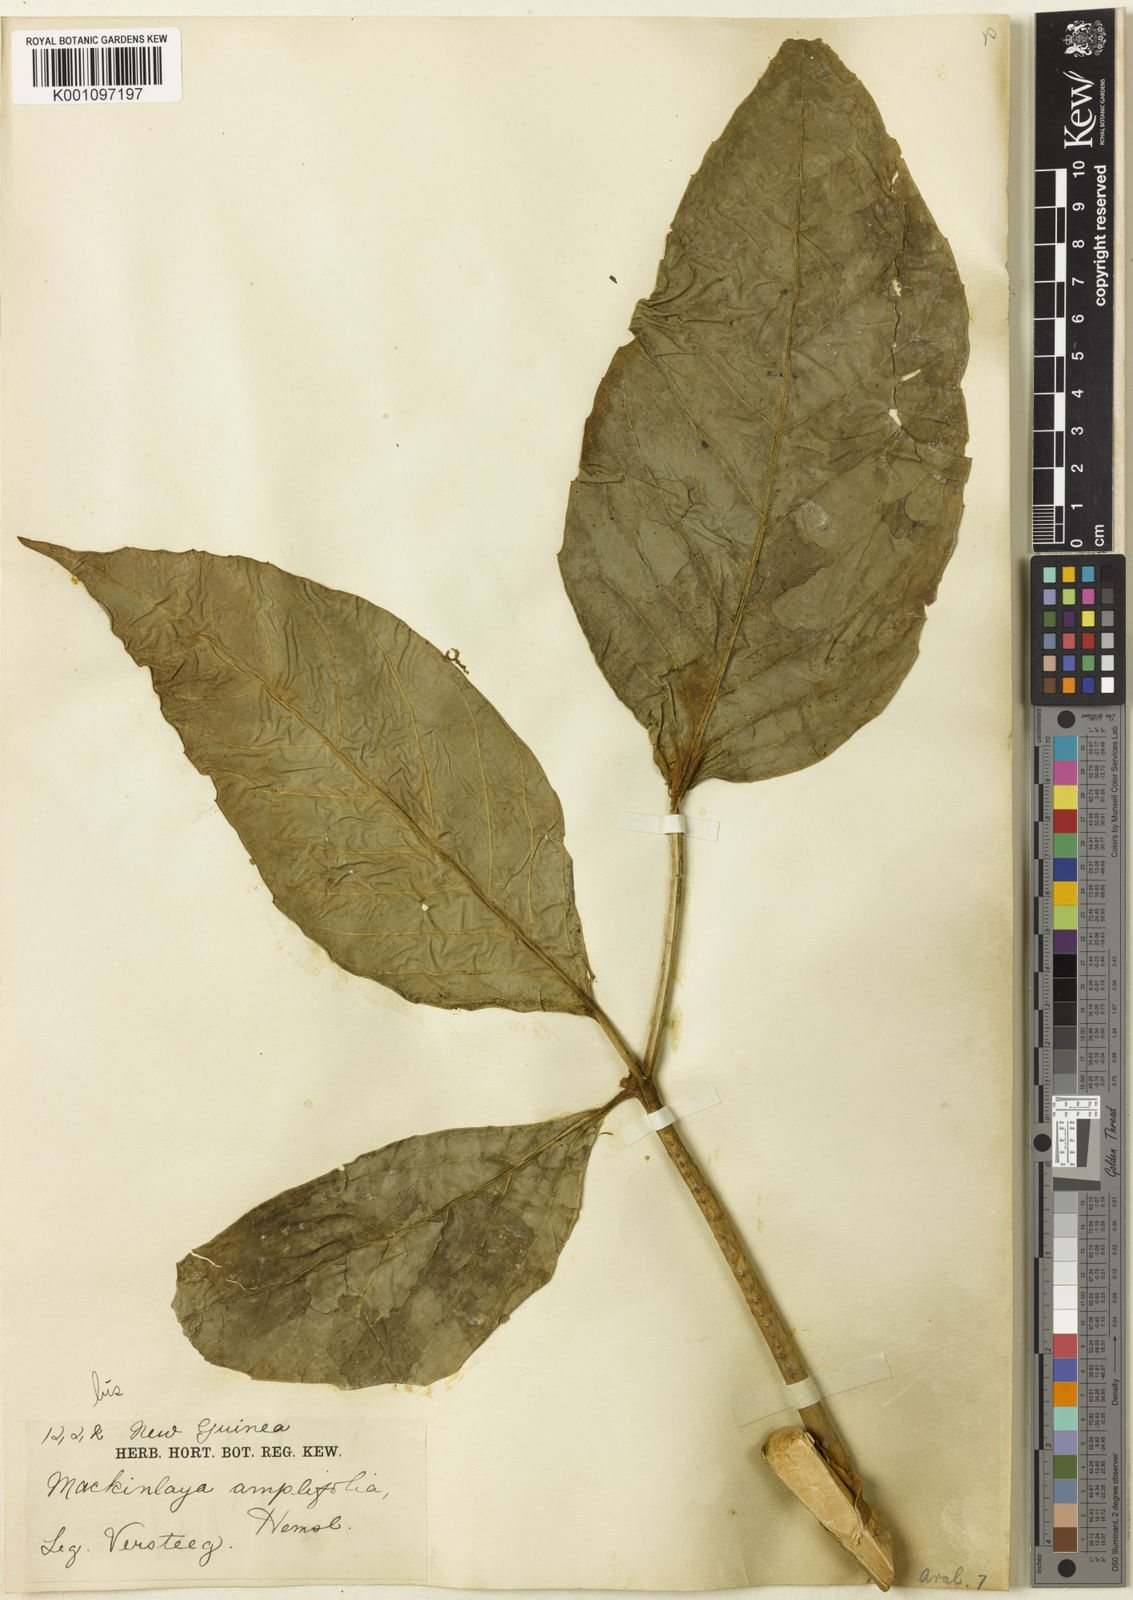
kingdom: Plantae
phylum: Tracheophyta
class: Magnoliopsida
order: Apiales
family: Apiaceae
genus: Mackinlaya
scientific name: Mackinlaya celebica
